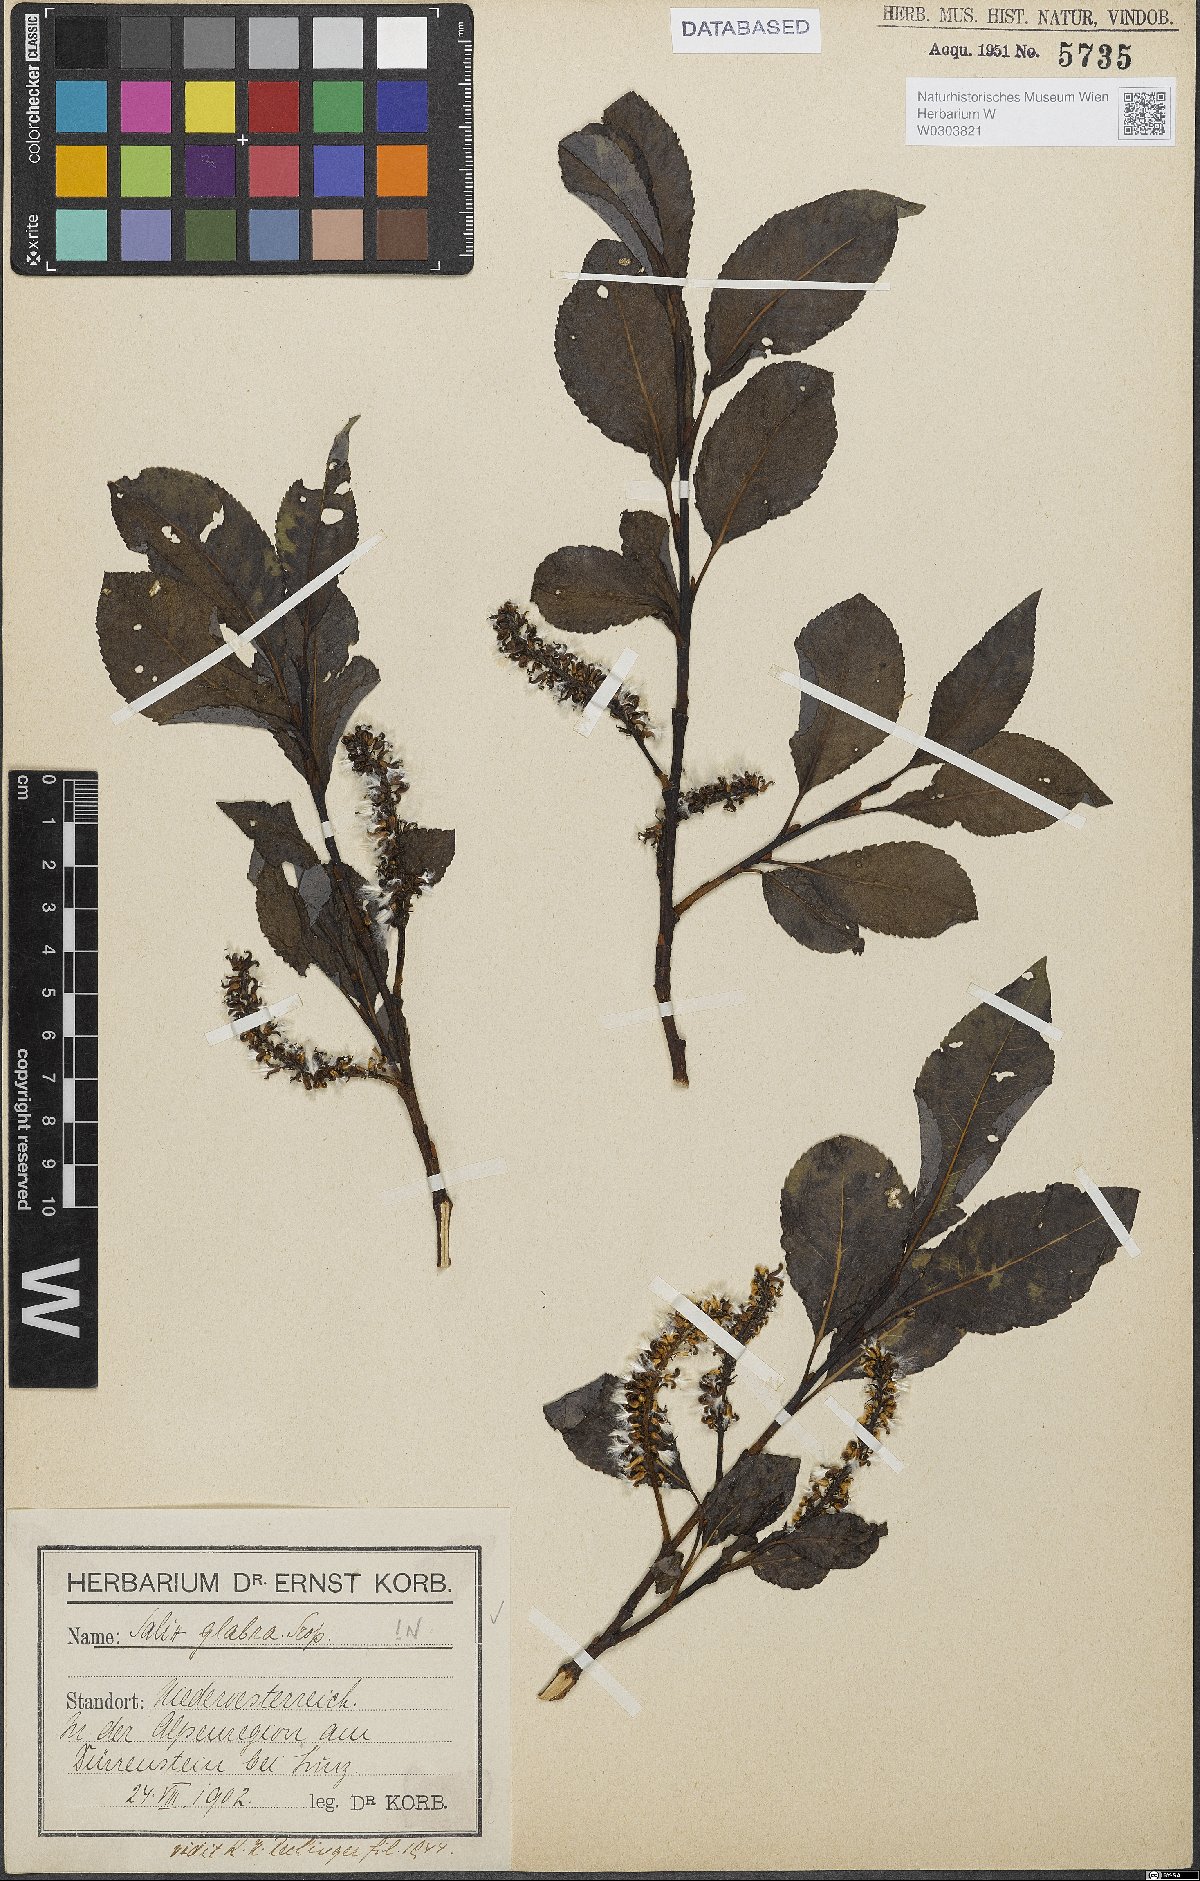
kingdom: Plantae
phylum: Tracheophyta
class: Magnoliopsida
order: Malpighiales
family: Salicaceae
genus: Salix
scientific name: Salix glabra
